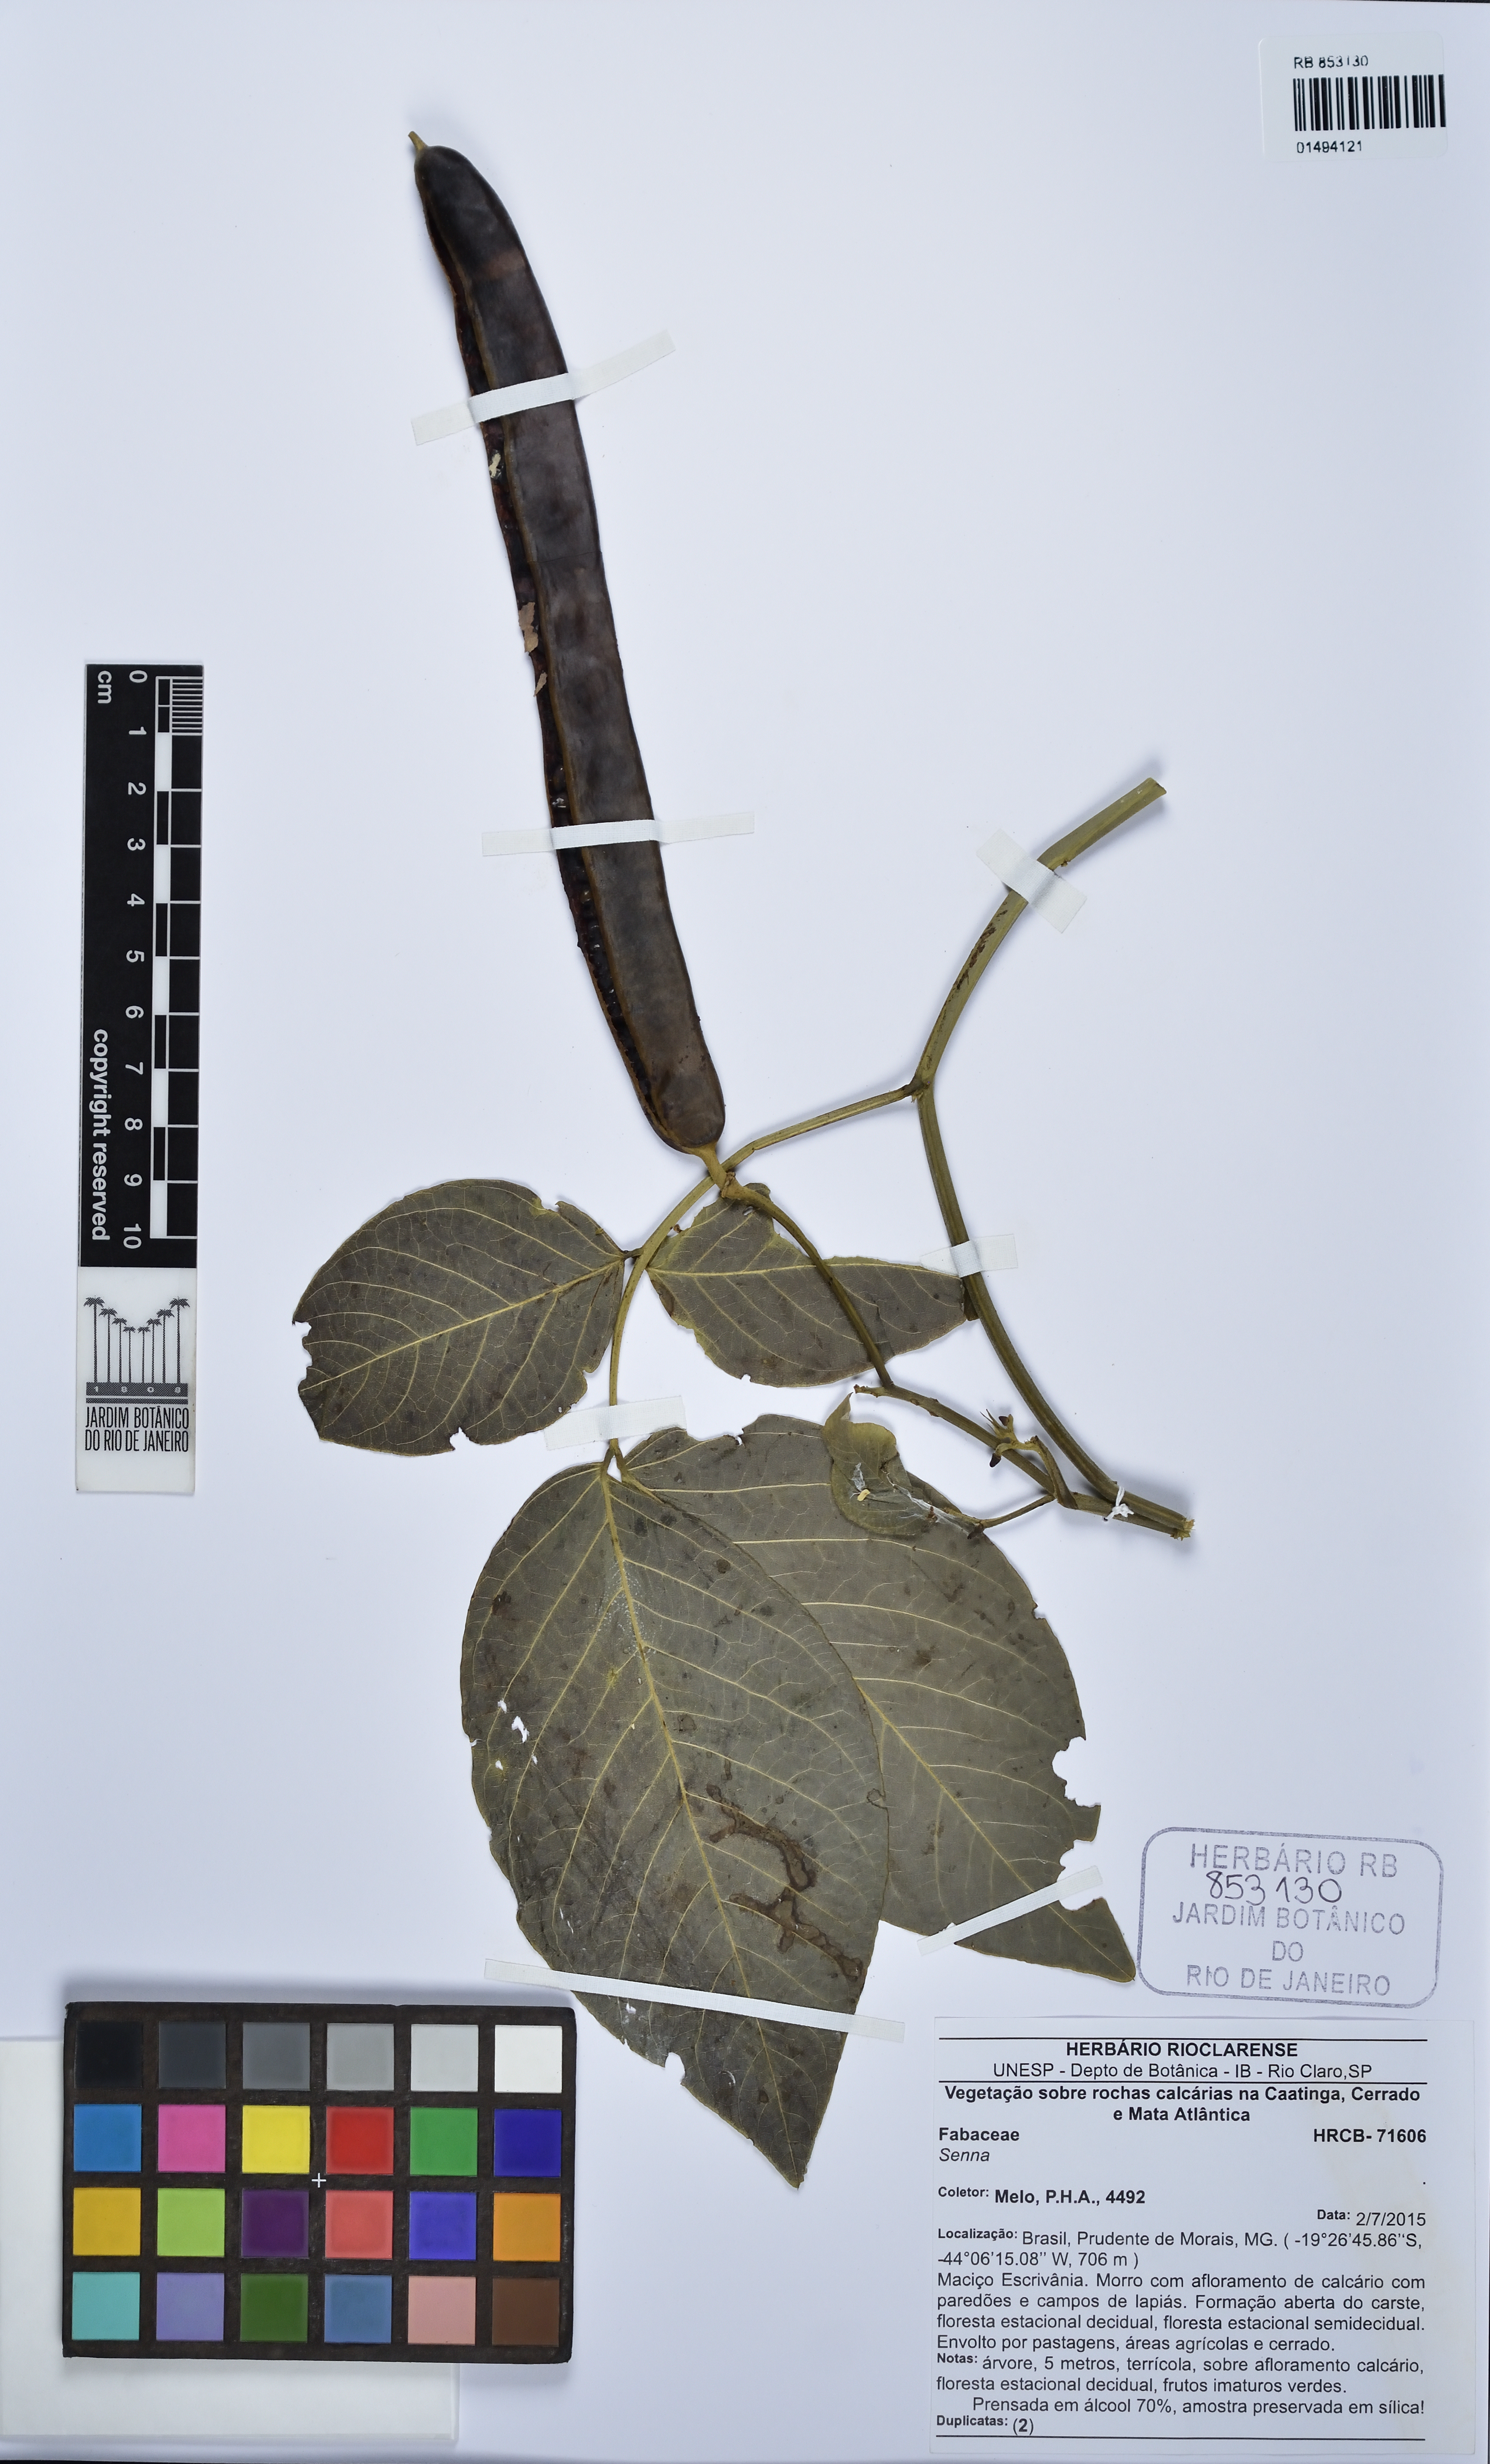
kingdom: Plantae
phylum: Tracheophyta
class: Magnoliopsida
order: Fabales
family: Fabaceae
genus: Senna
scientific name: Senna
